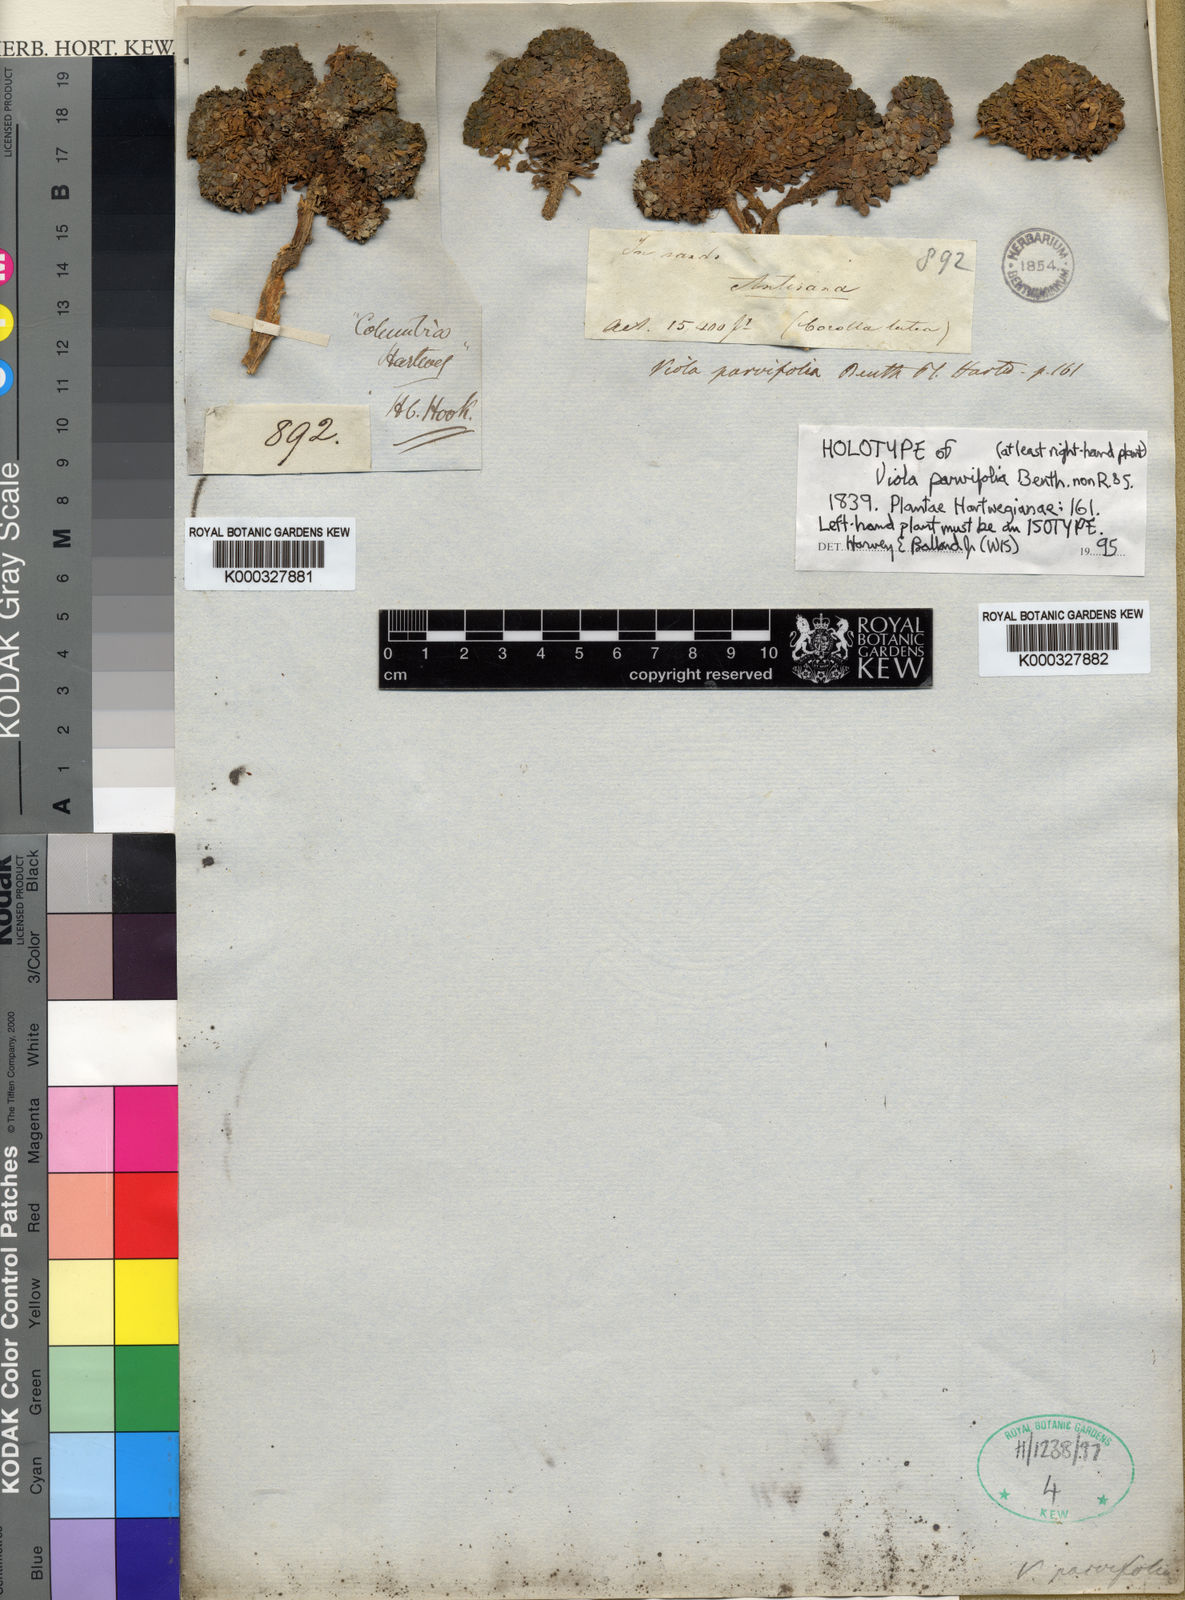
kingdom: Plantae
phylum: Tracheophyta
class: Magnoliopsida
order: Malpighiales
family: Violaceae
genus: Viola
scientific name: Viola polycephala
